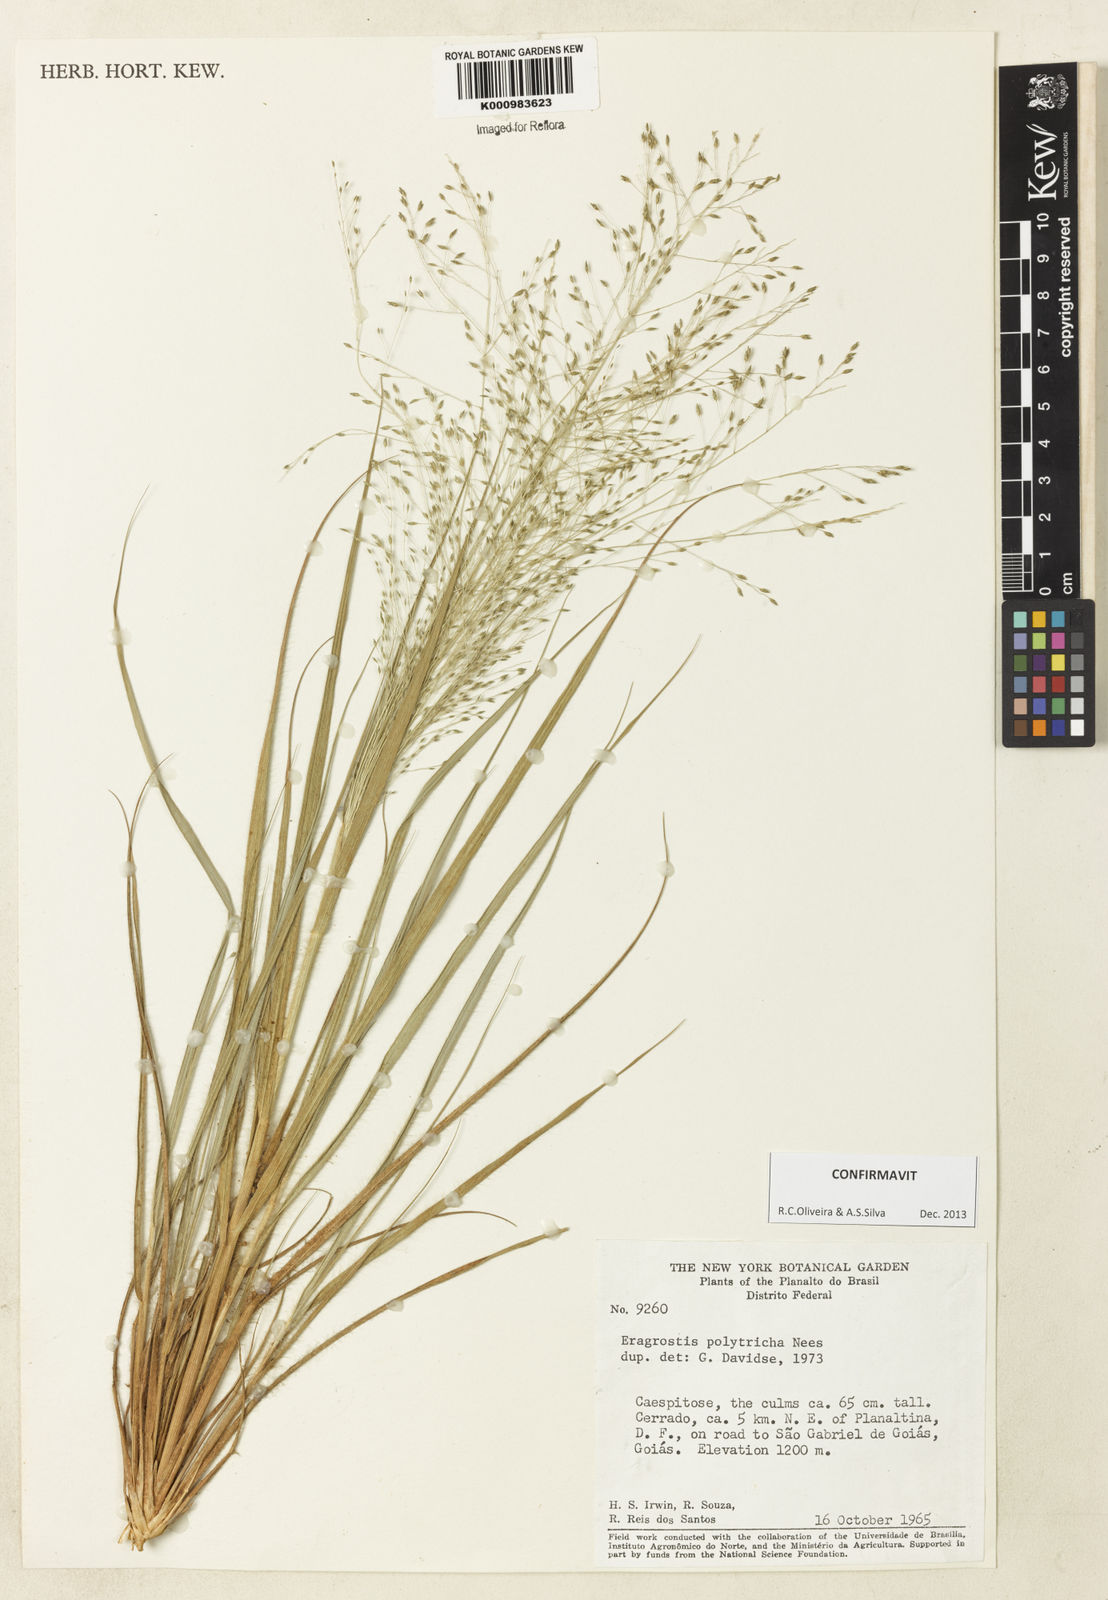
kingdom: Plantae
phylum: Tracheophyta
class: Liliopsida
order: Poales
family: Poaceae
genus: Eragrostis
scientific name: Eragrostis polytricha
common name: Hairy-sheath love grass
